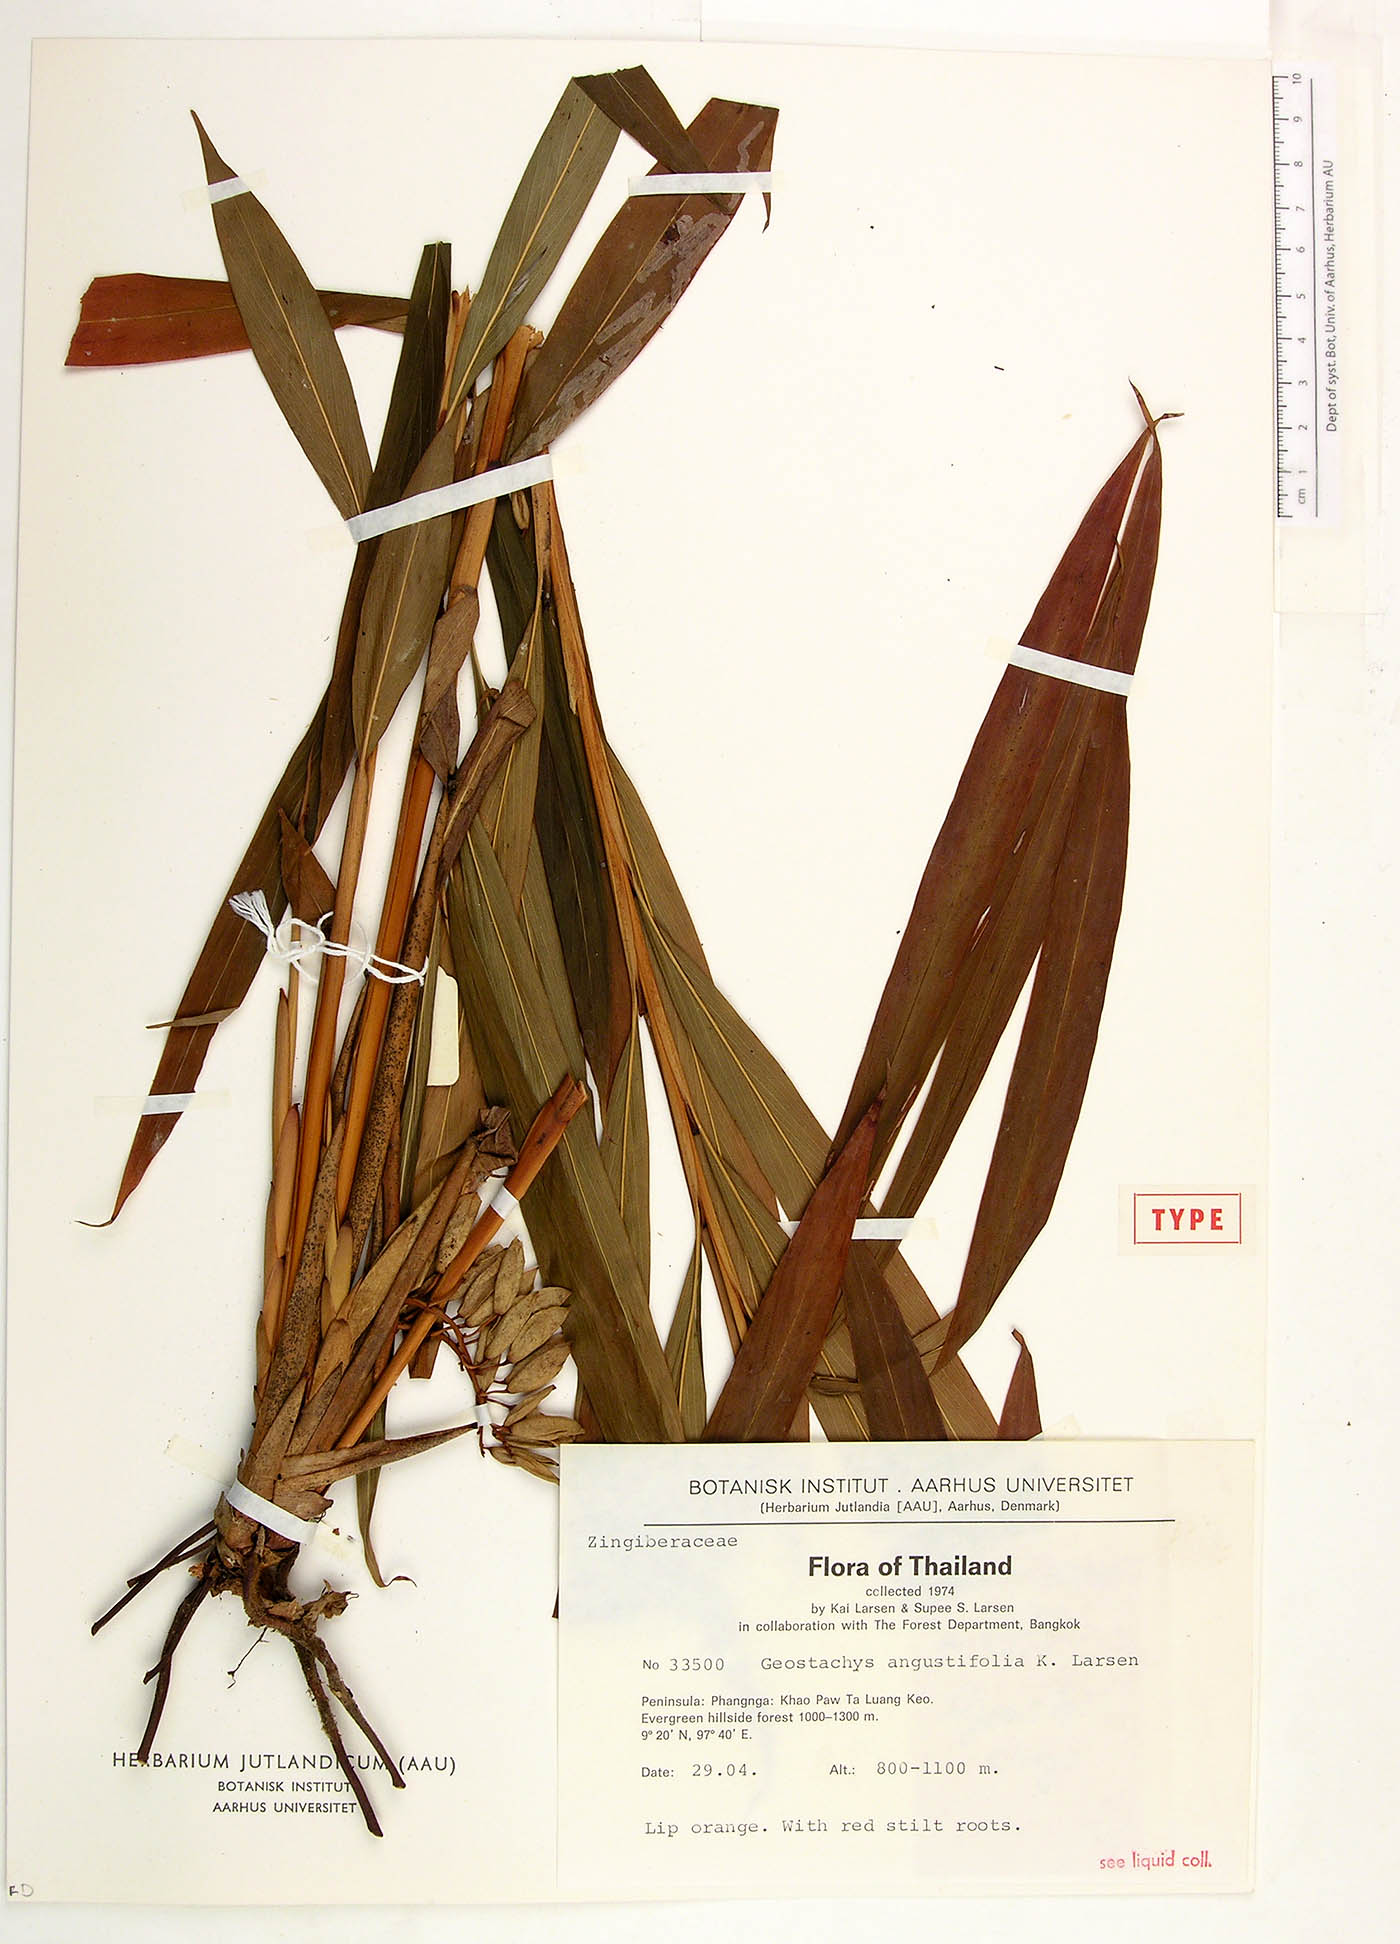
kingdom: Plantae
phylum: Tracheophyta
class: Liliopsida
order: Zingiberales
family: Zingiberaceae
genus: Geostachys
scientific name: Geostachys angustifolia
